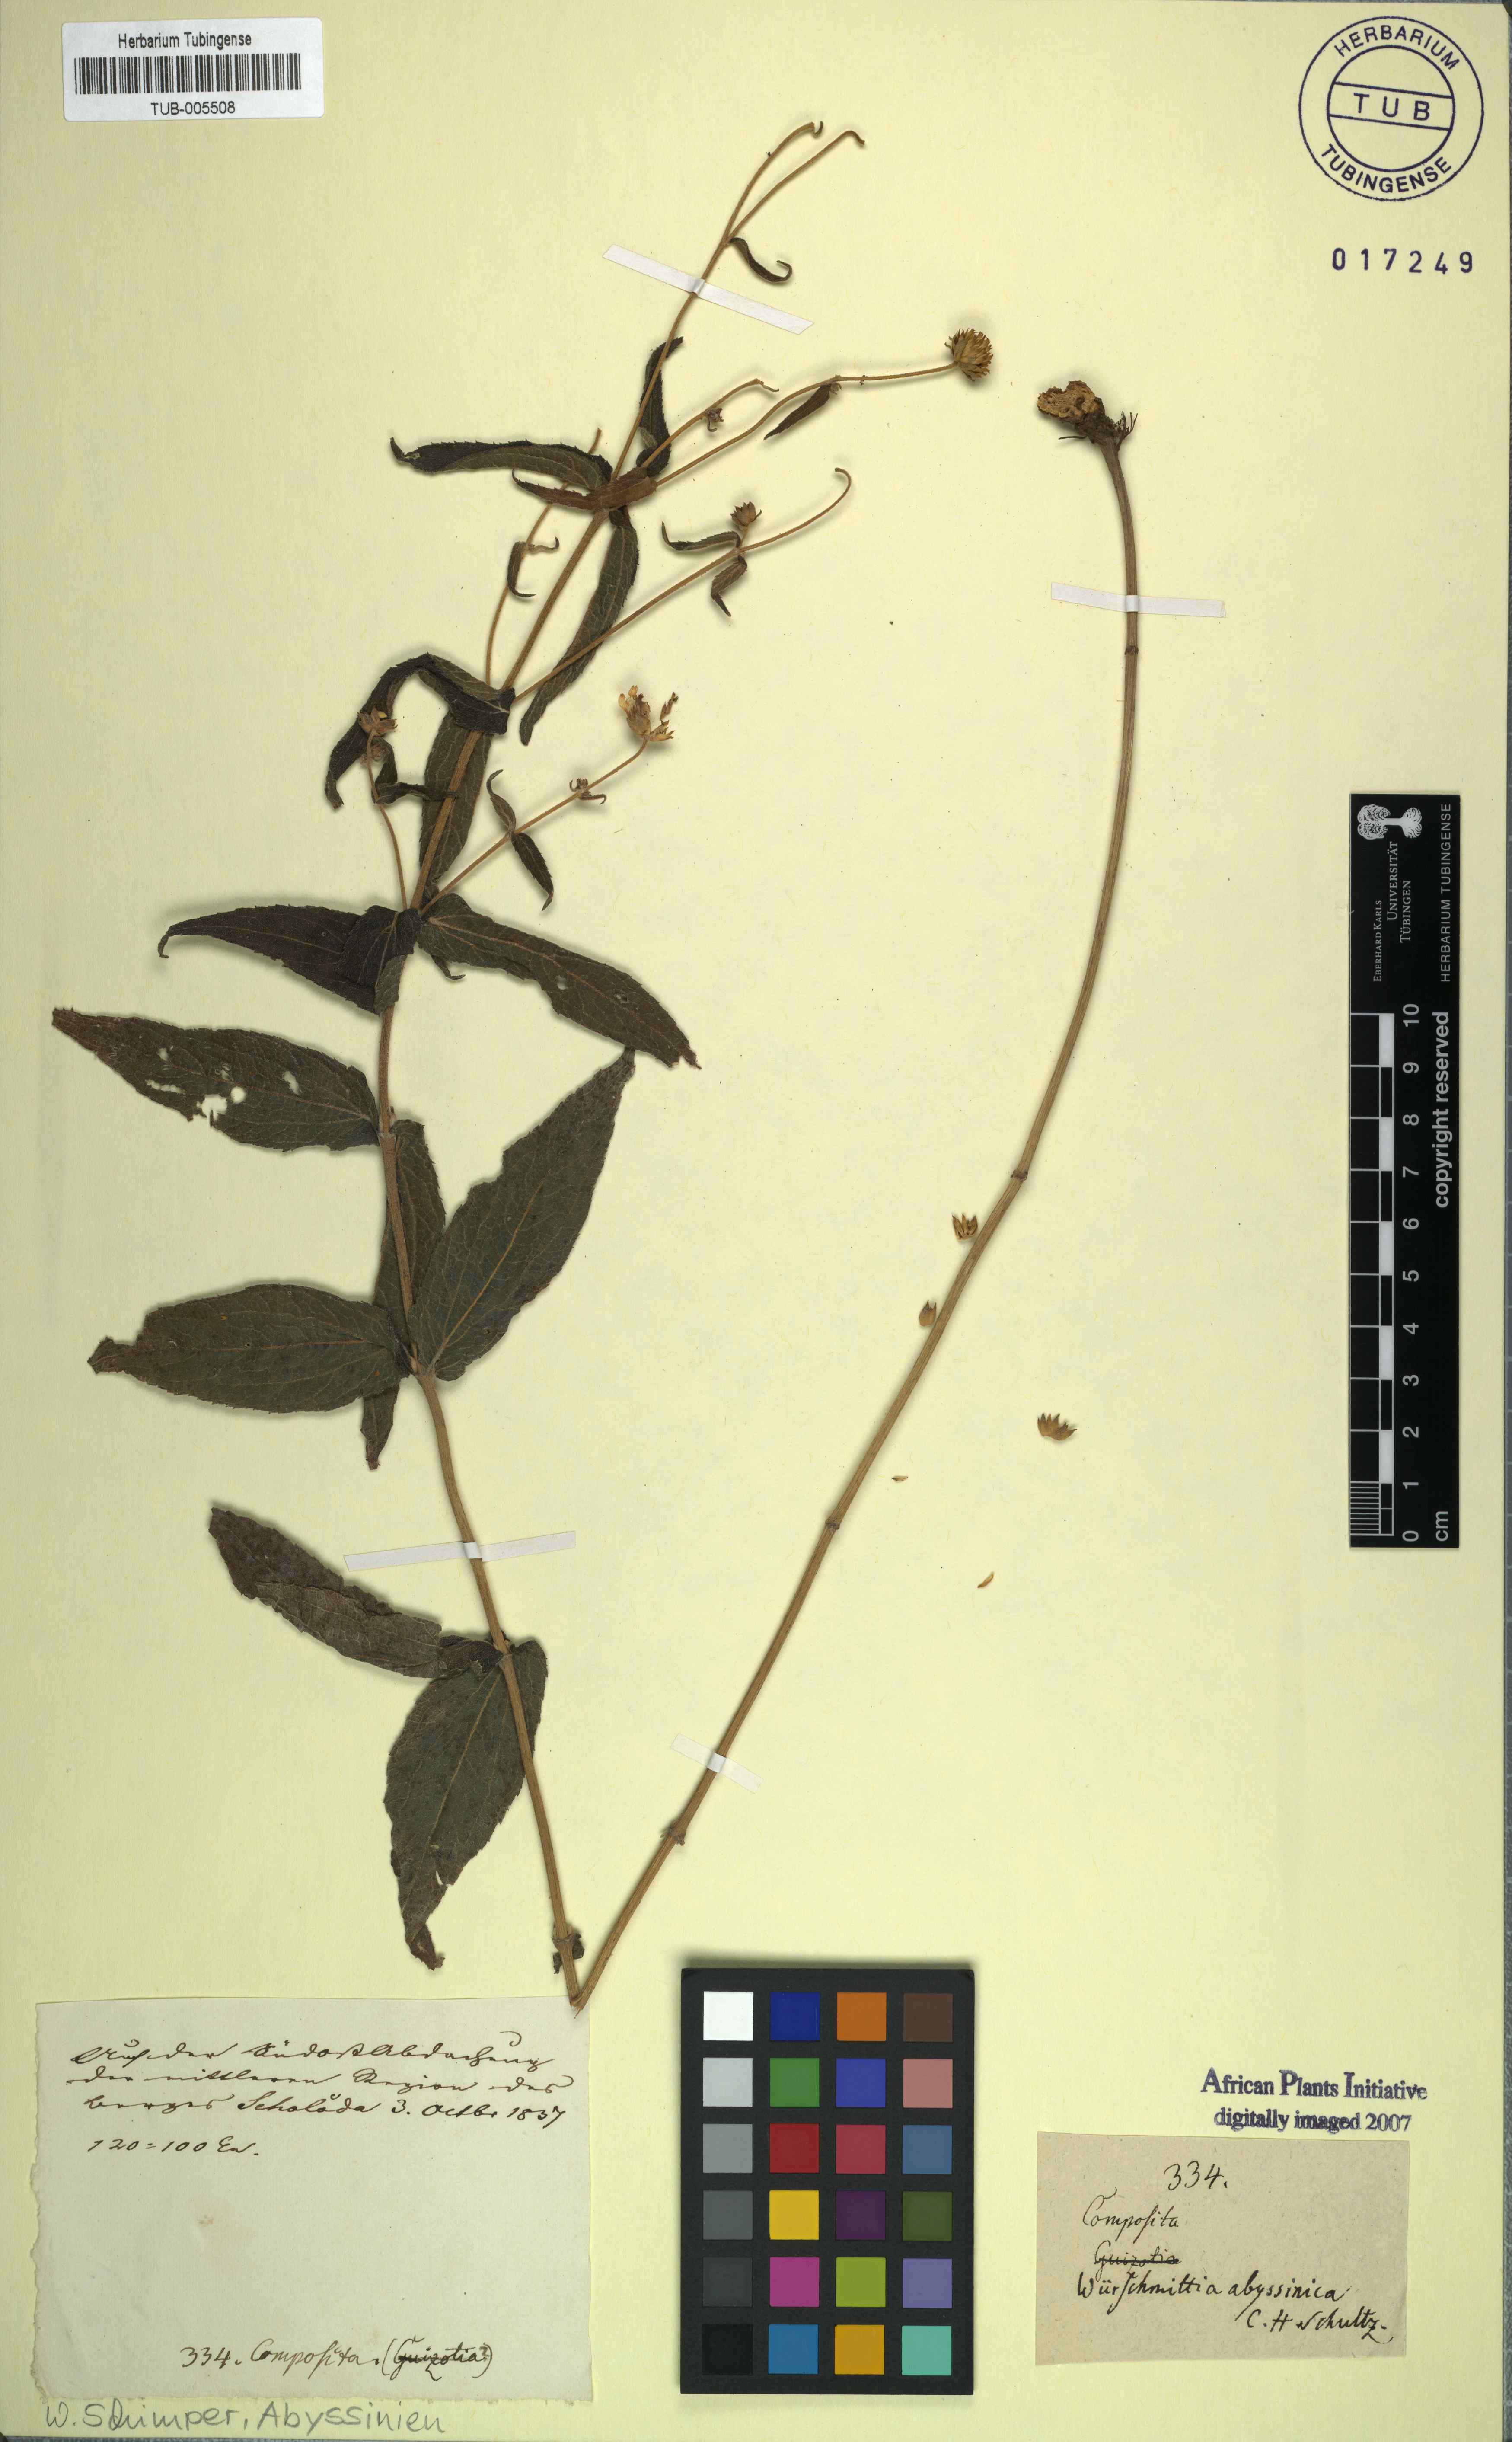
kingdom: Plantae
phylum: Tracheophyta
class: Magnoliopsida
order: Asterales
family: Asteraceae
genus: Lipotriche
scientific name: Lipotriche abyssinica
